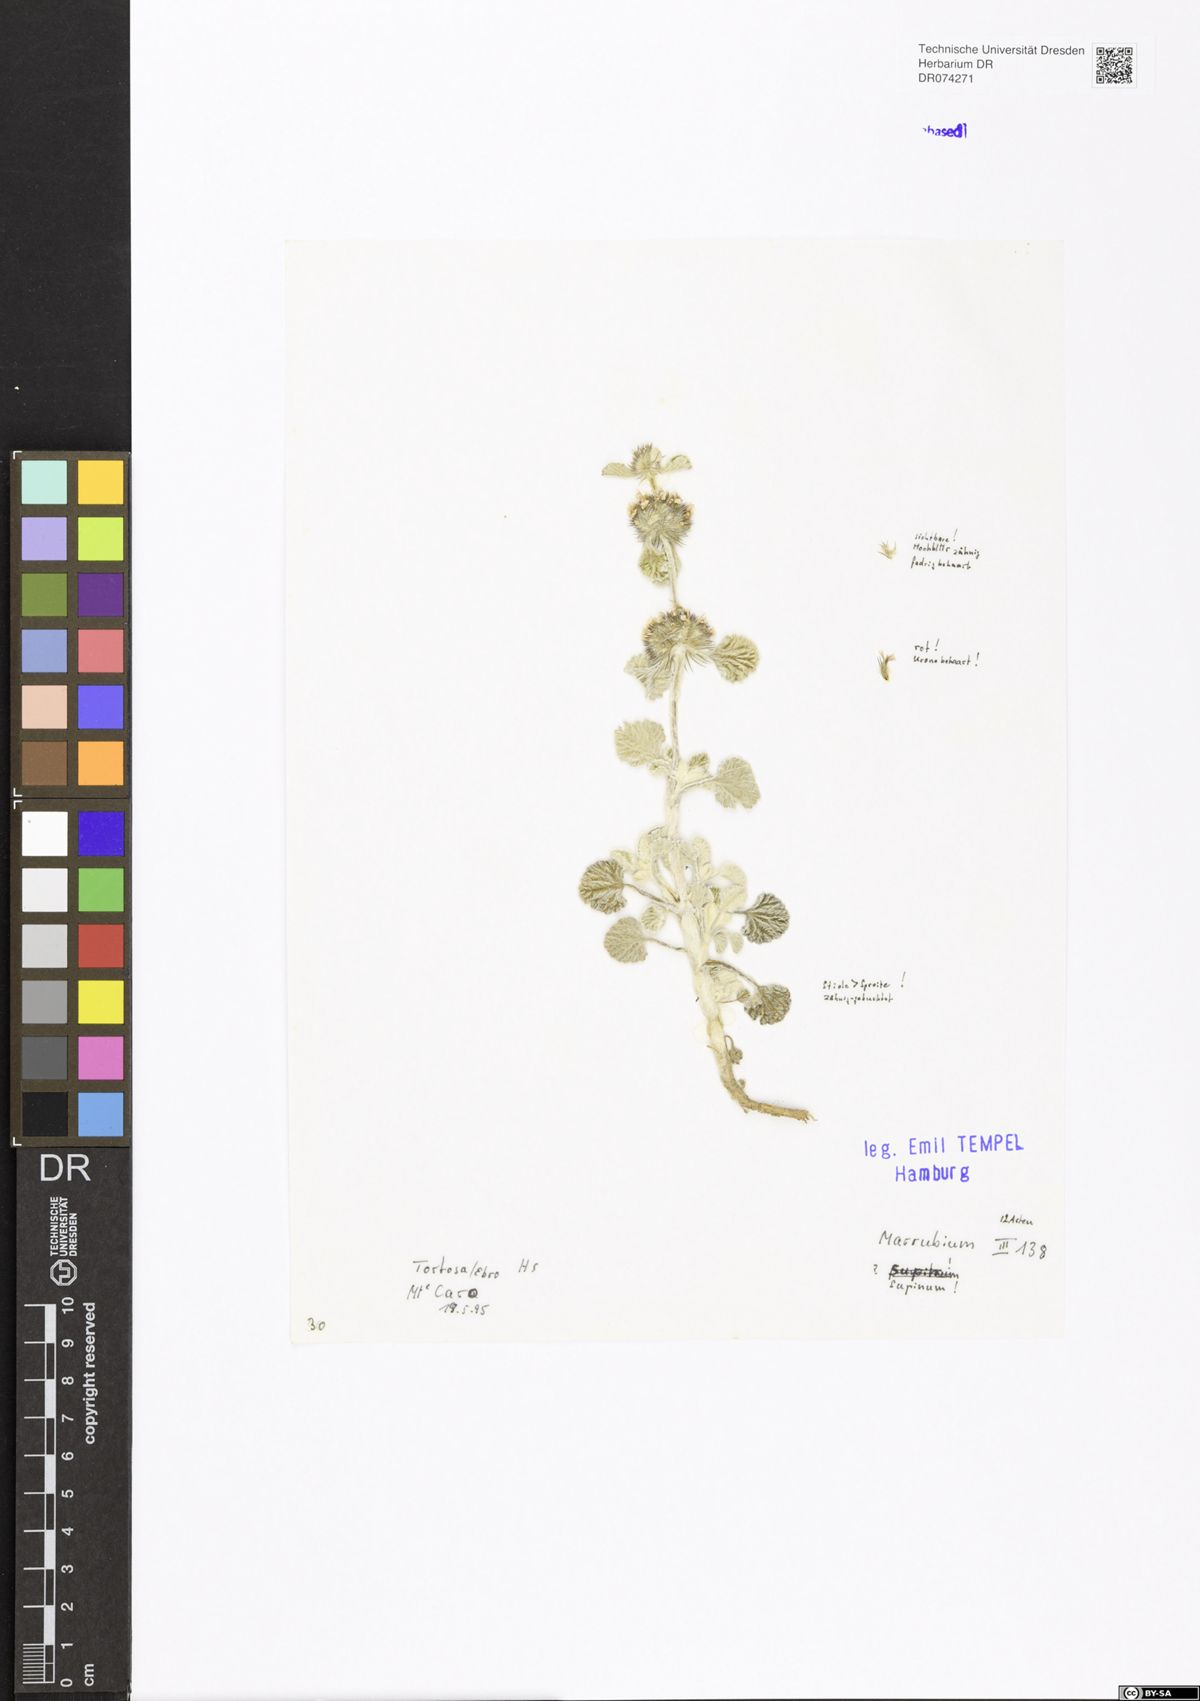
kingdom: Plantae
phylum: Tracheophyta
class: Magnoliopsida
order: Lamiales
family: Lamiaceae
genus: Marrubium
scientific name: Marrubium supinum
